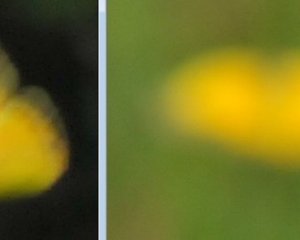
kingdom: Animalia
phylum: Arthropoda
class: Insecta
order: Lepidoptera
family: Pieridae
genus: Colias
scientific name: Colias eurytheme
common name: Orange Sulphur
